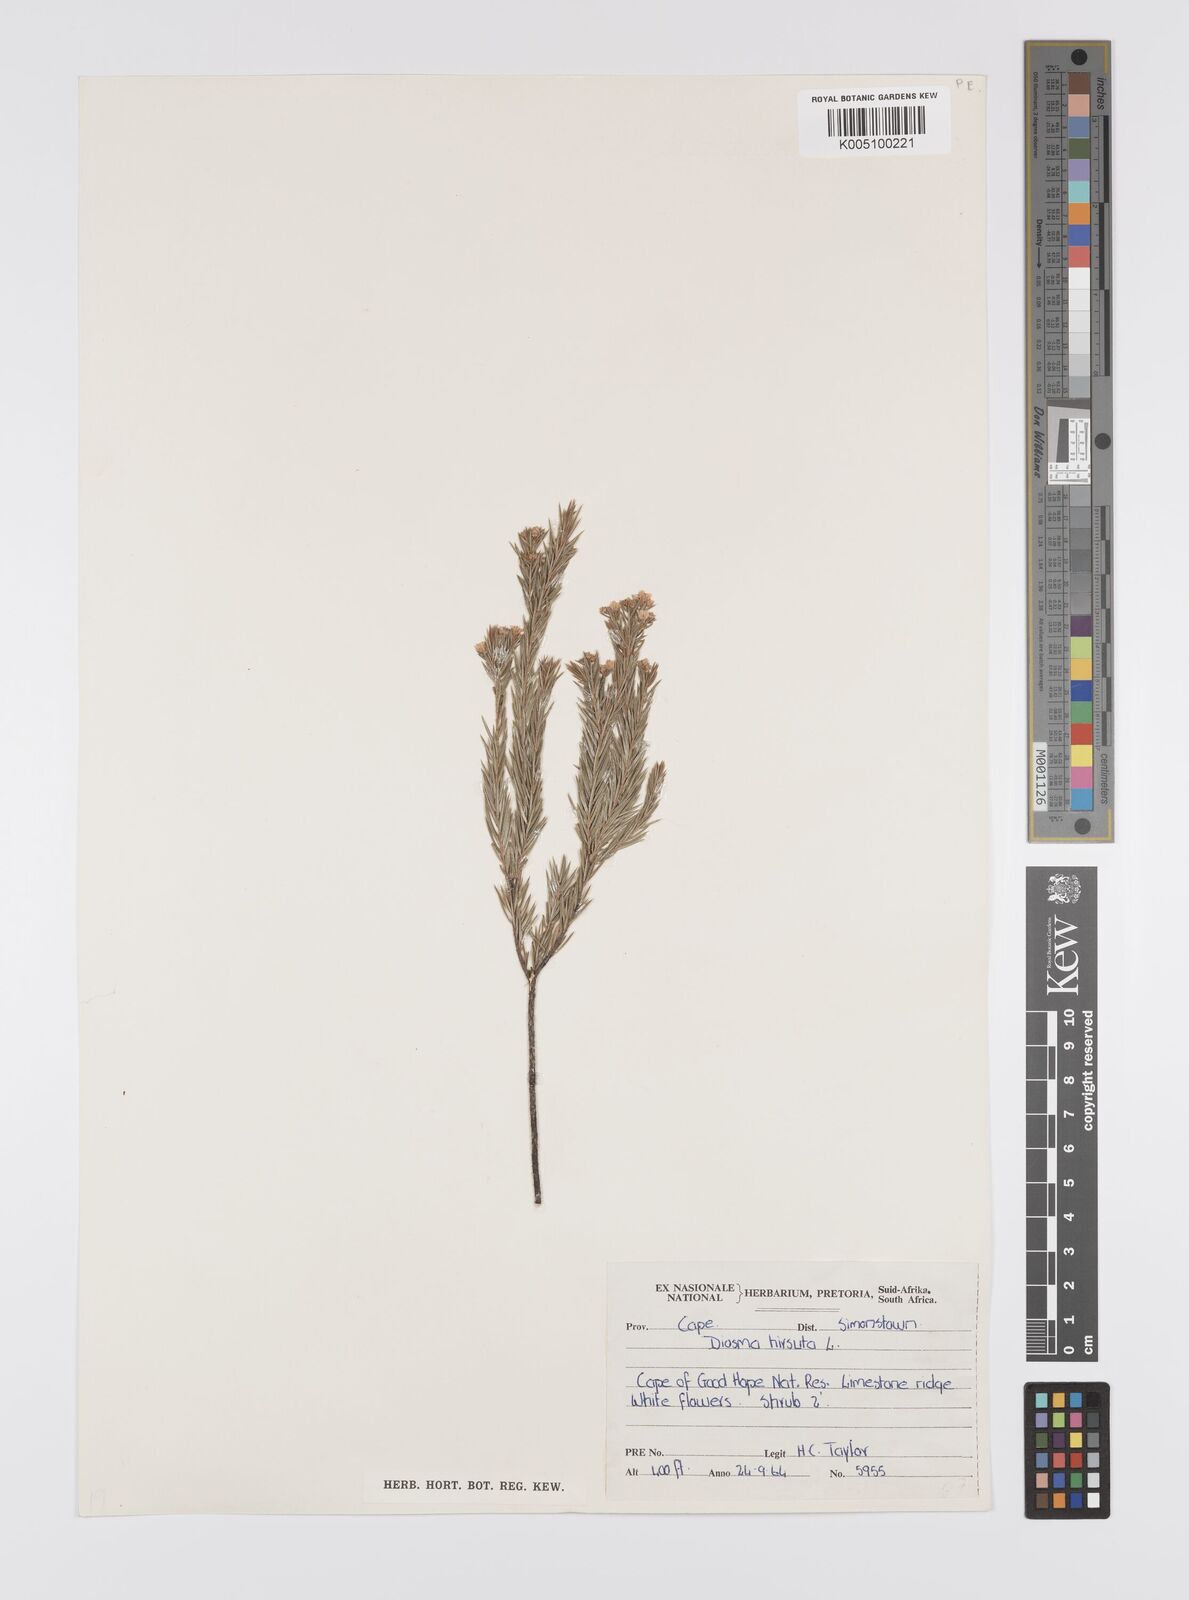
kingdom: Plantae
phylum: Tracheophyta
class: Magnoliopsida
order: Sapindales
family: Rutaceae
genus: Diosma
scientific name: Diosma hirsuta
